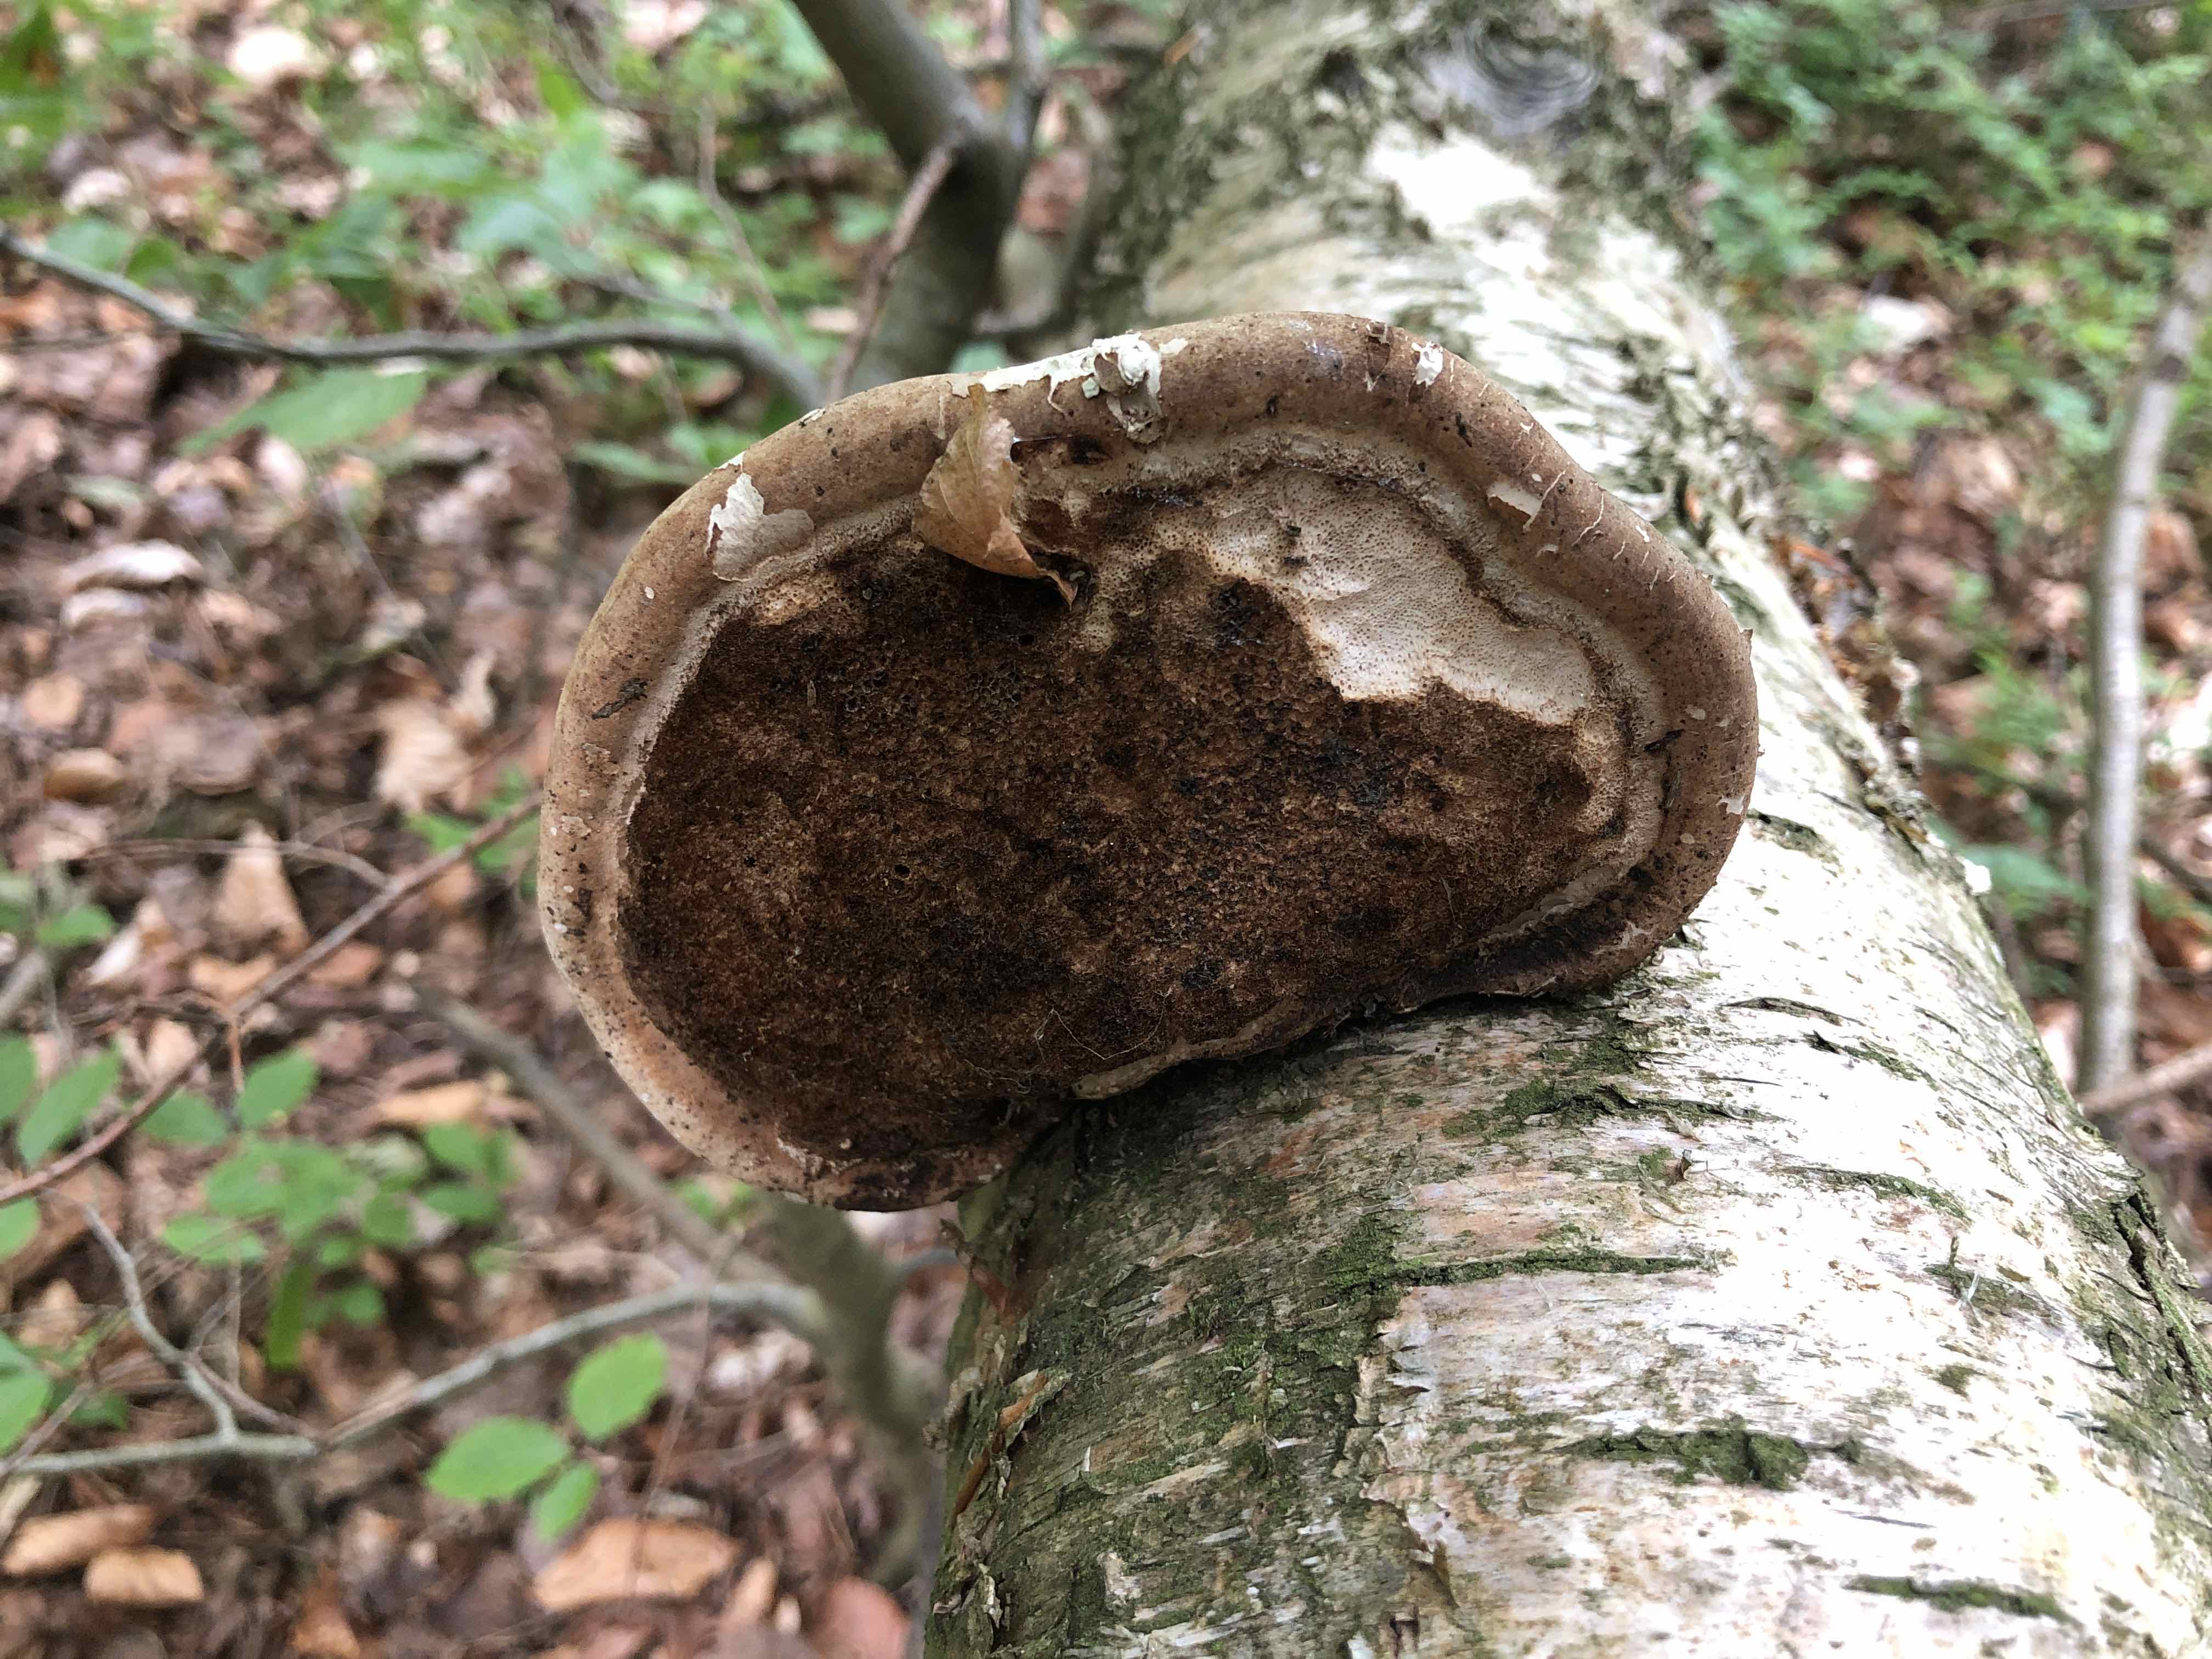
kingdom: Fungi
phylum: Basidiomycota
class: Agaricomycetes
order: Polyporales
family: Fomitopsidaceae
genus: Fomitopsis
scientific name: Fomitopsis betulina
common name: birkeporesvamp
